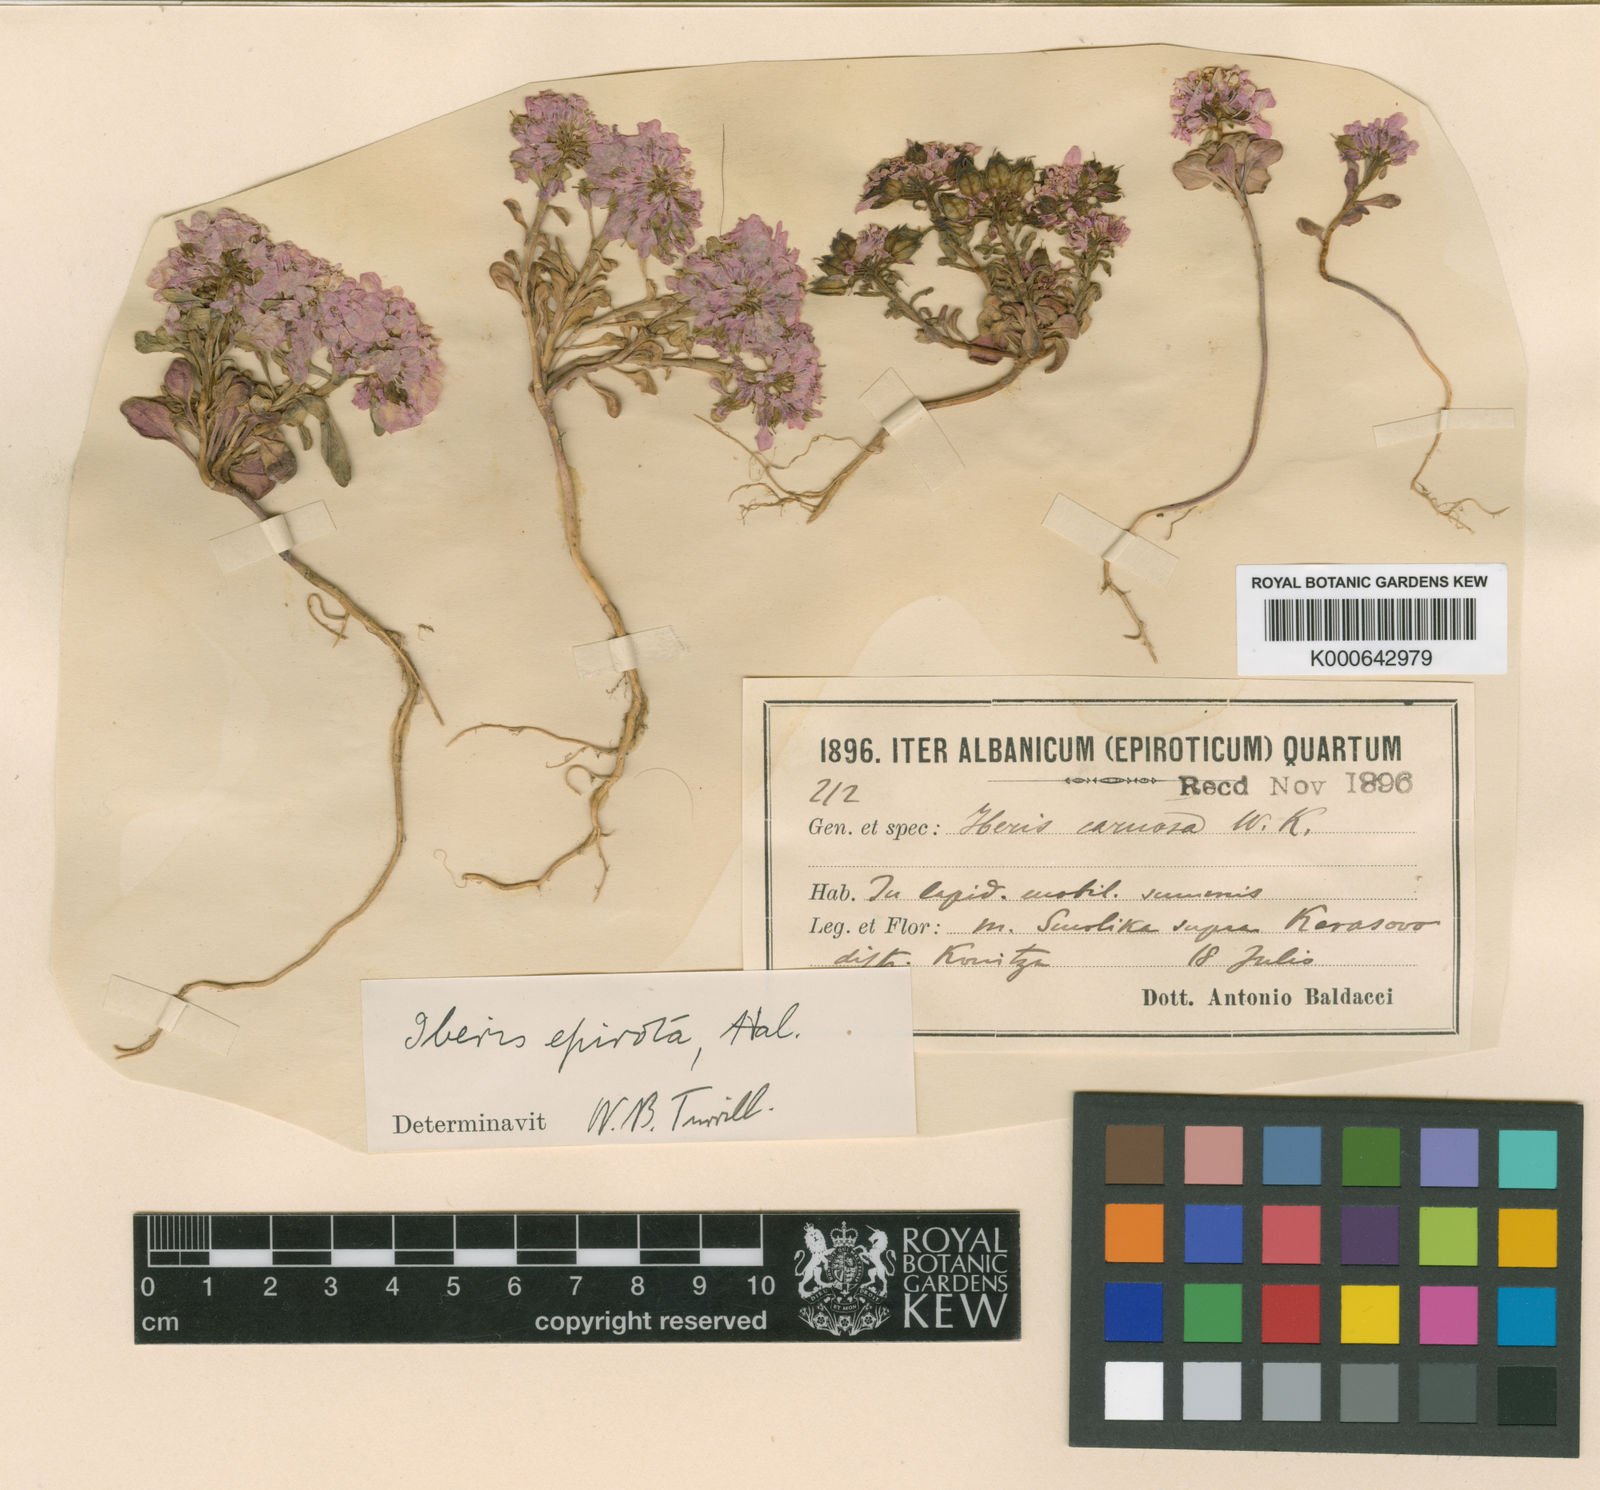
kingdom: Plantae
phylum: Tracheophyta
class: Magnoliopsida
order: Brassicales
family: Brassicaceae
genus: Iberis
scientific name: Iberis carnosa
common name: Pruit's candytuft
